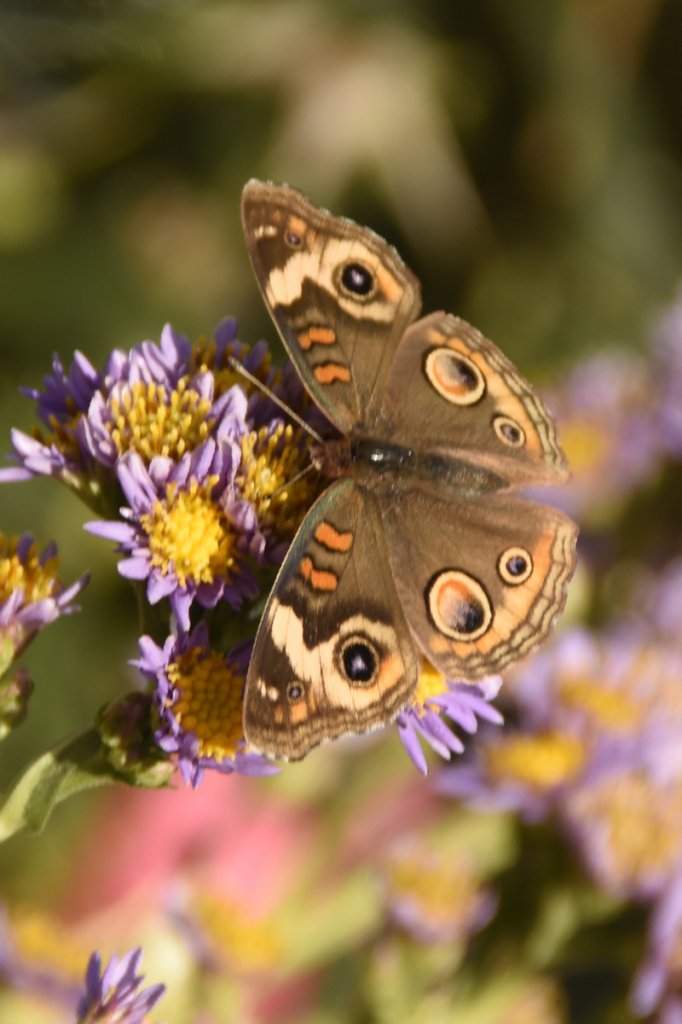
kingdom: Animalia
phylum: Arthropoda
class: Insecta
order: Lepidoptera
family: Nymphalidae
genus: Junonia
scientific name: Junonia coenia
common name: Common Buckeye
